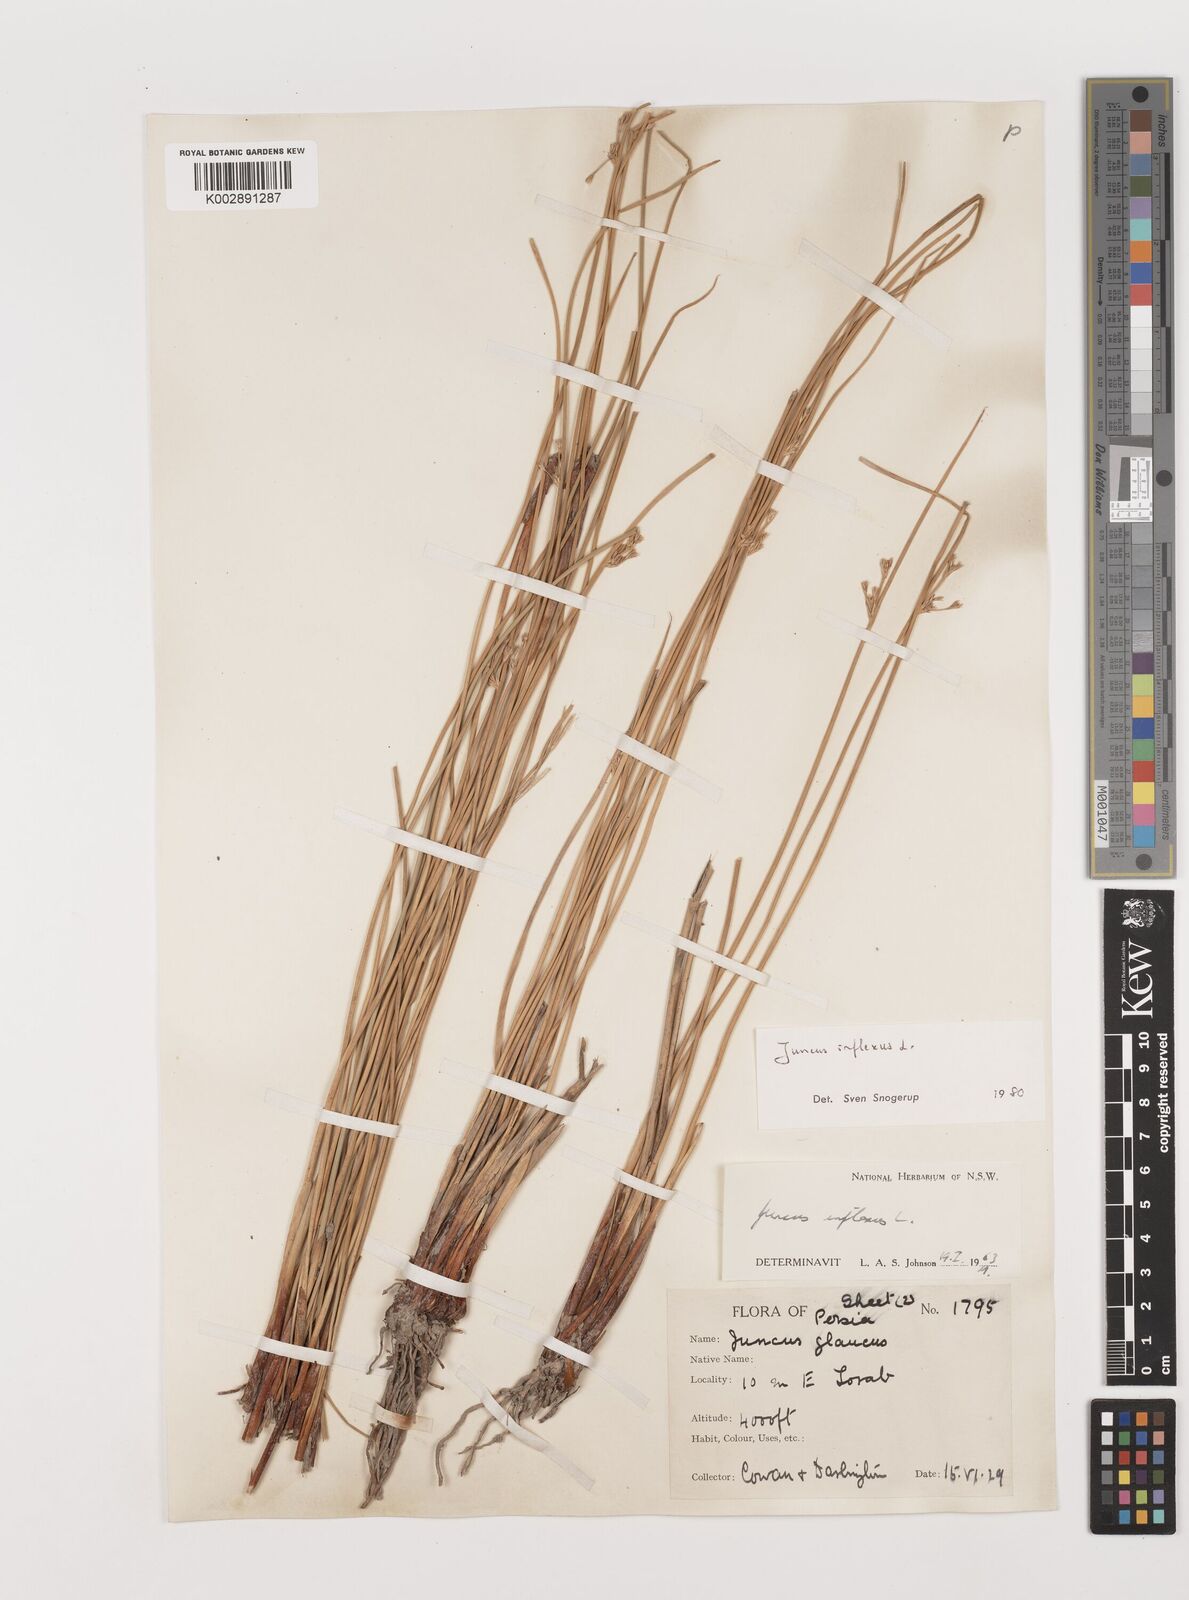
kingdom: Plantae
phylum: Tracheophyta
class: Liliopsida
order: Poales
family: Juncaceae
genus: Juncus
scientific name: Juncus inflexus
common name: Hard rush
